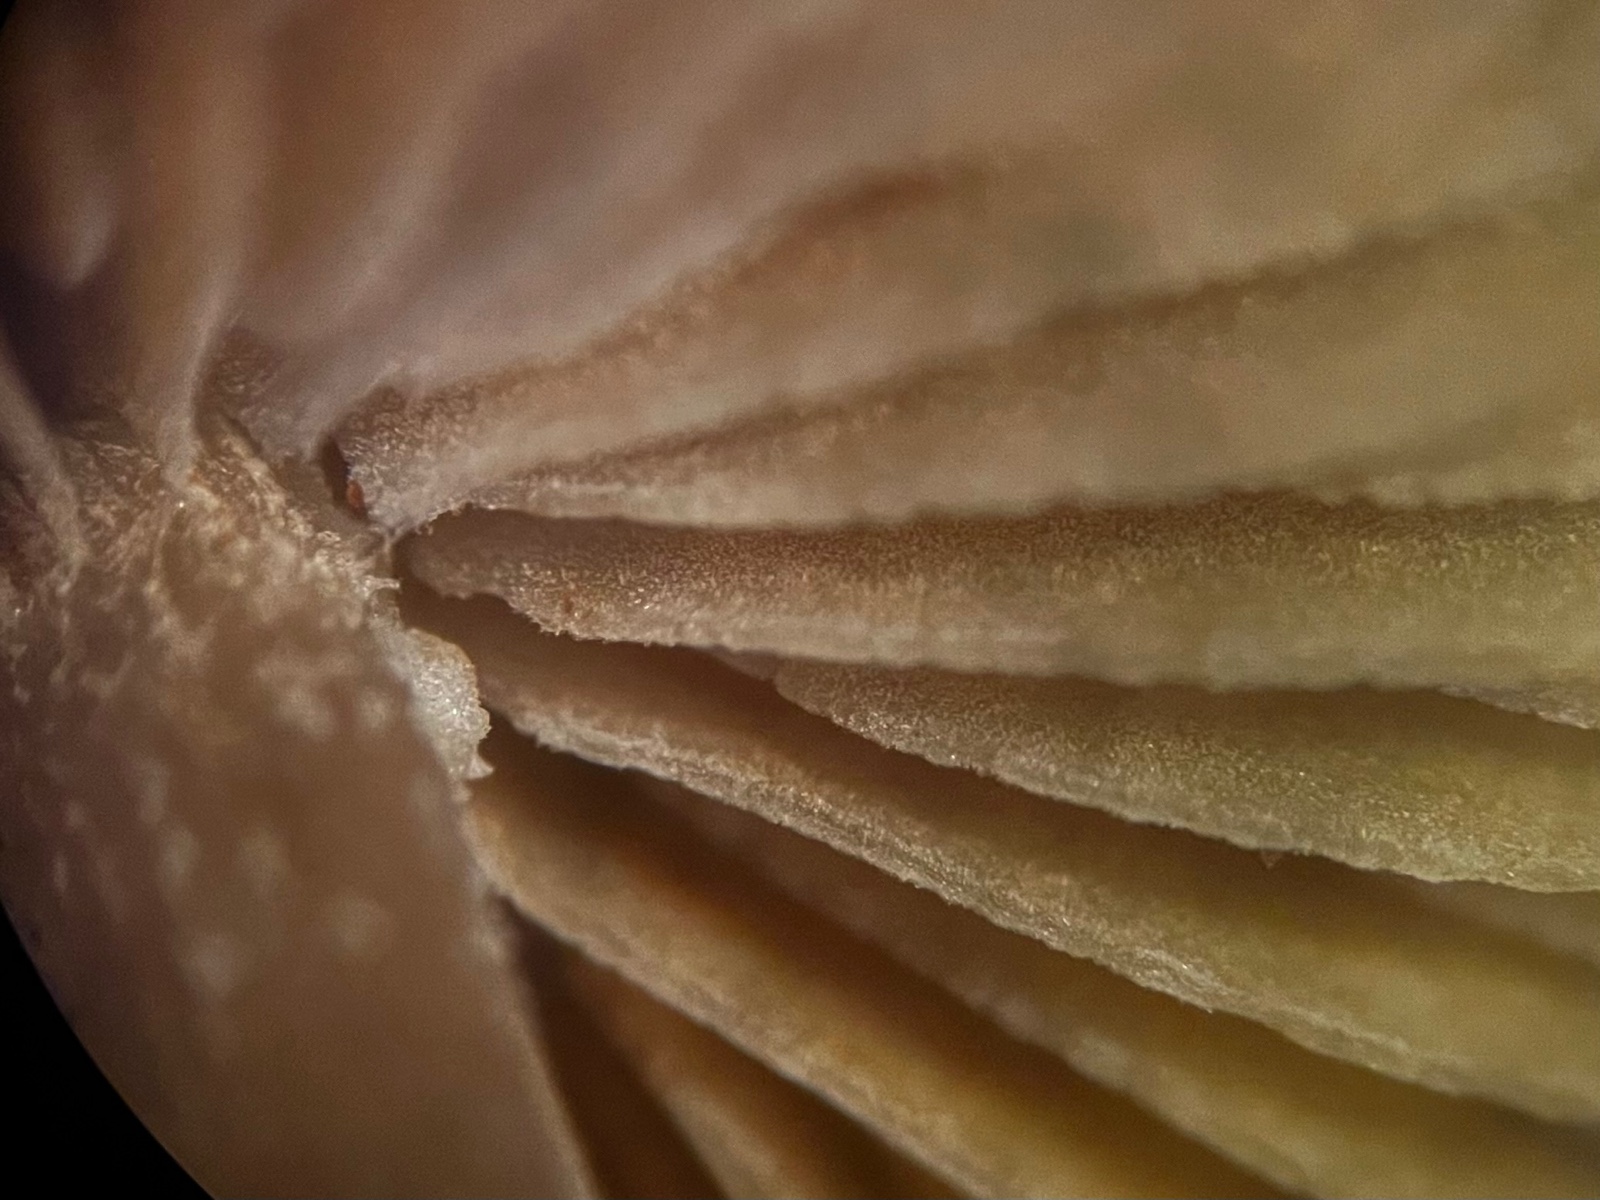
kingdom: Fungi
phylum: Basidiomycota
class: Agaricomycetes
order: Agaricales
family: Bolbitiaceae
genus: Conocybe
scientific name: Conocybe
